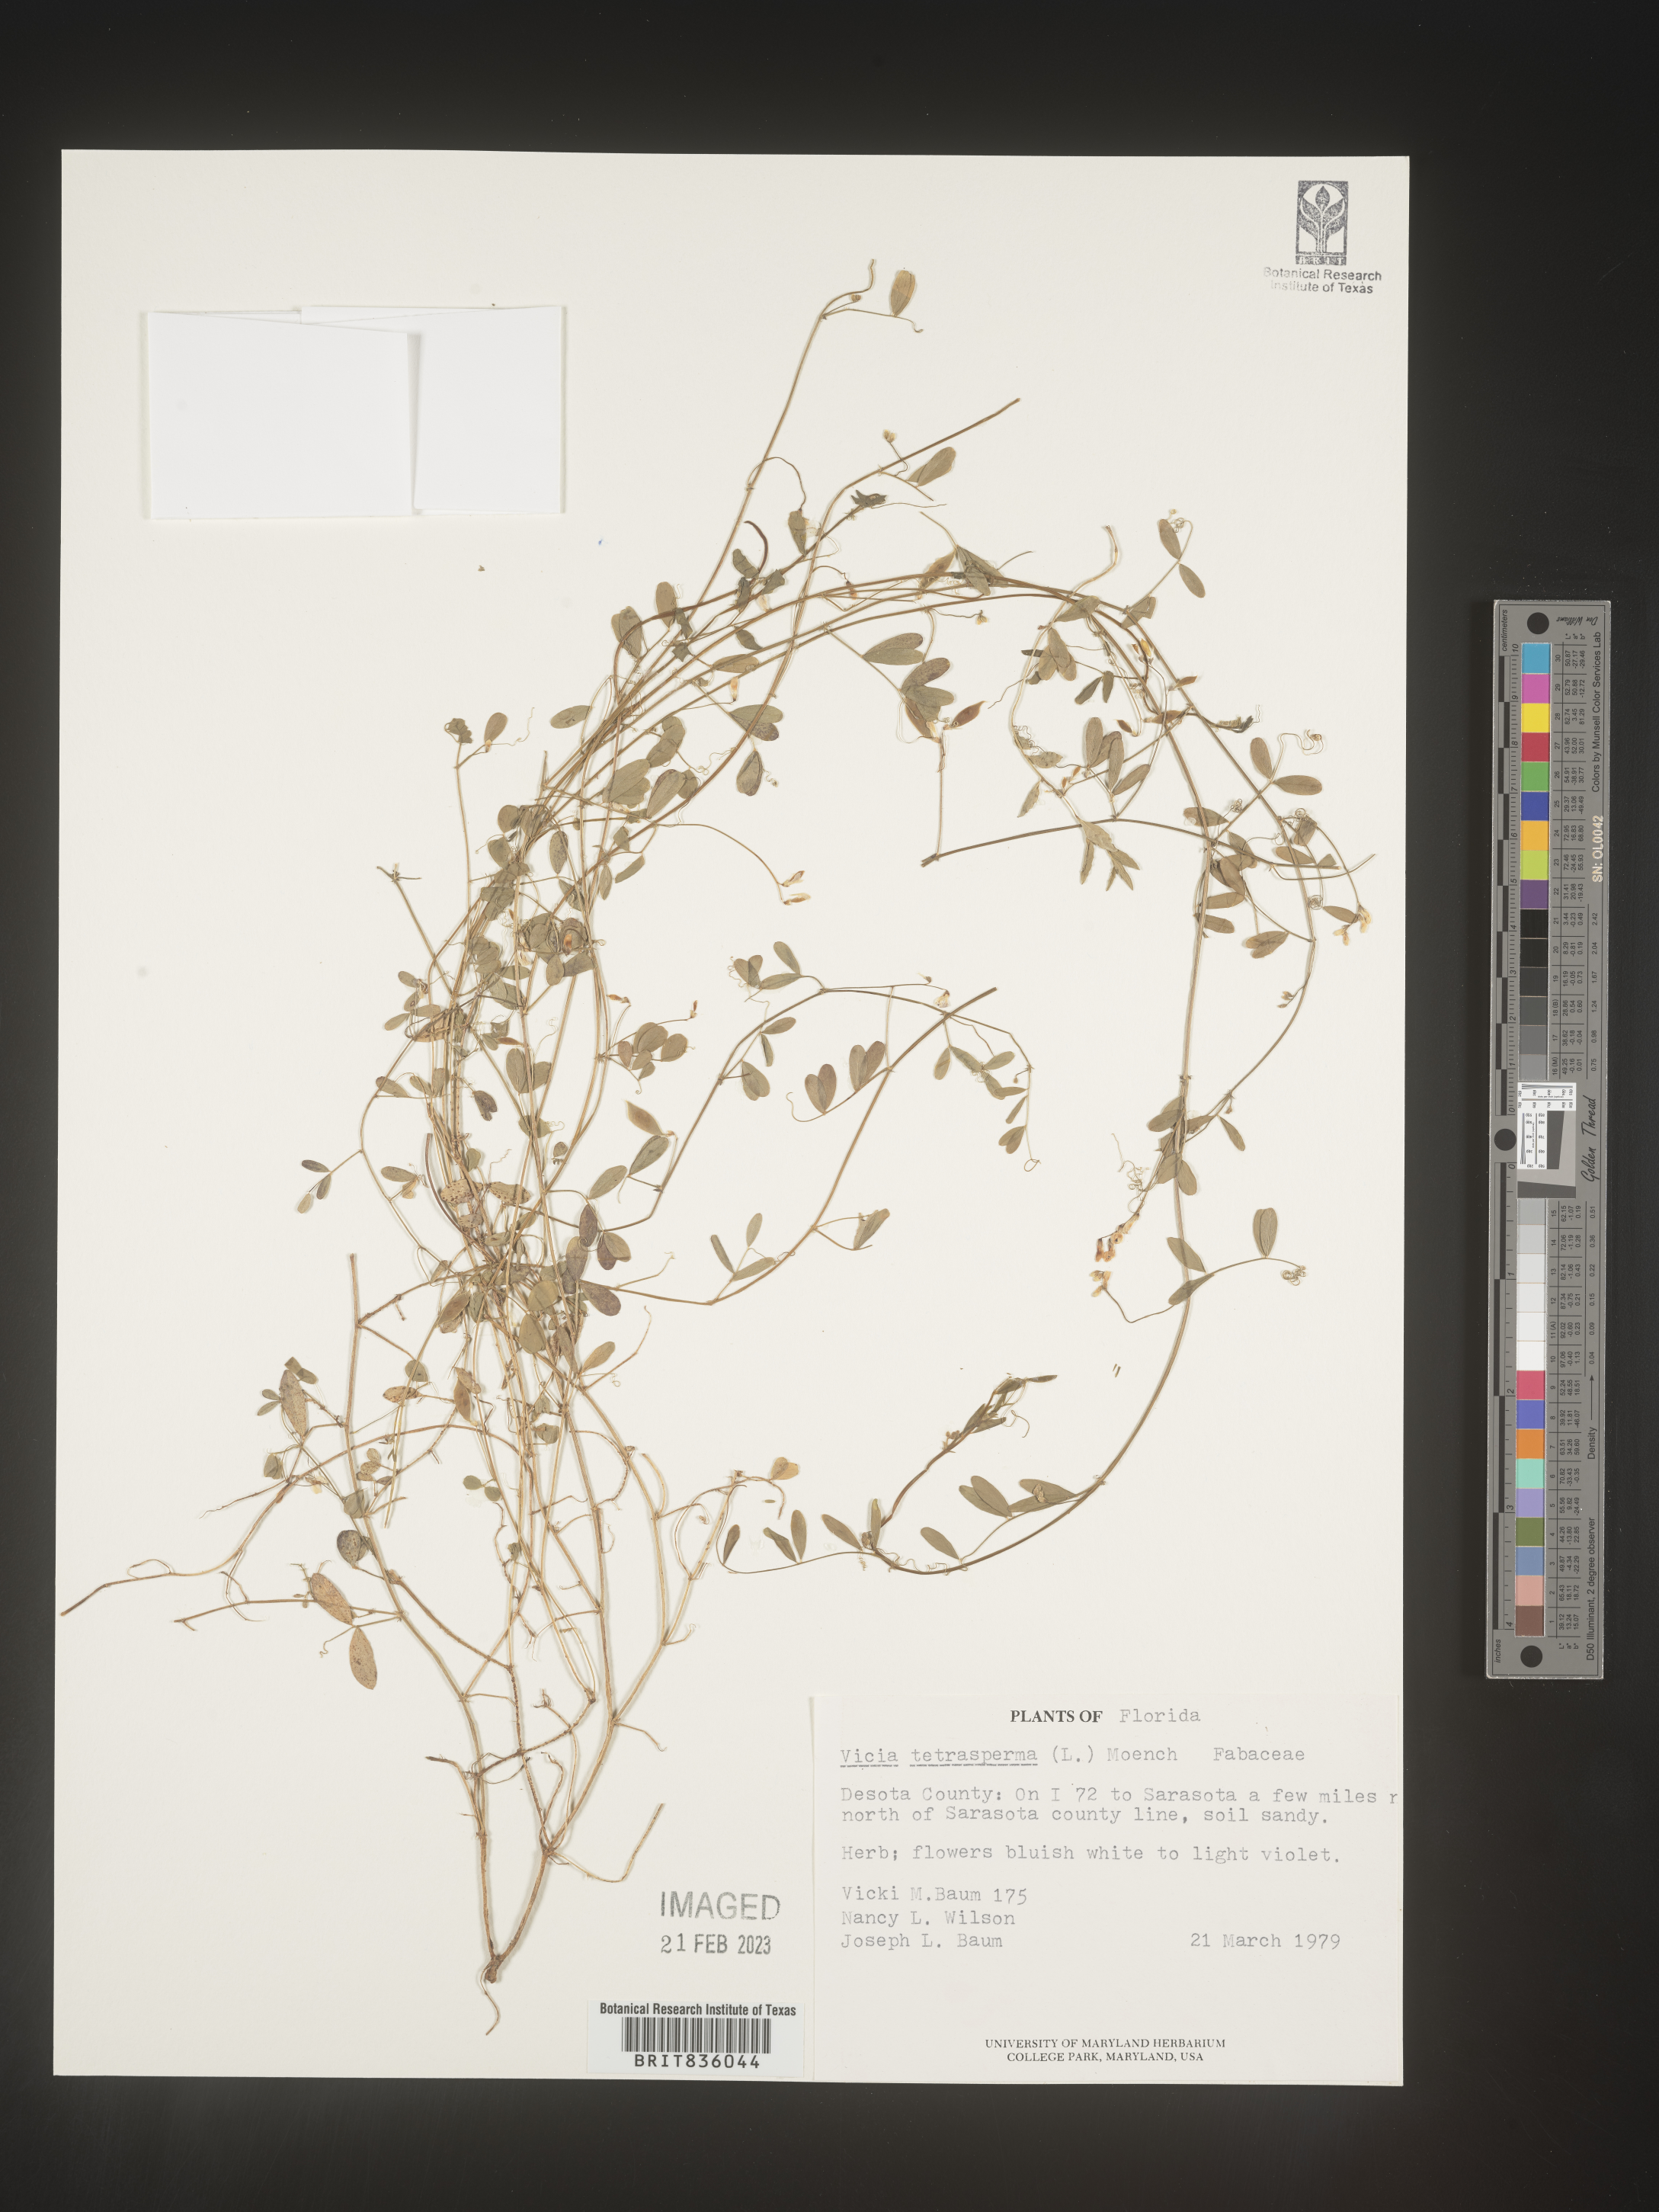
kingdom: Plantae
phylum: Tracheophyta
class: Magnoliopsida
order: Fabales
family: Fabaceae
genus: Vicia
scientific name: Vicia tetrasperma
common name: Smooth tare
